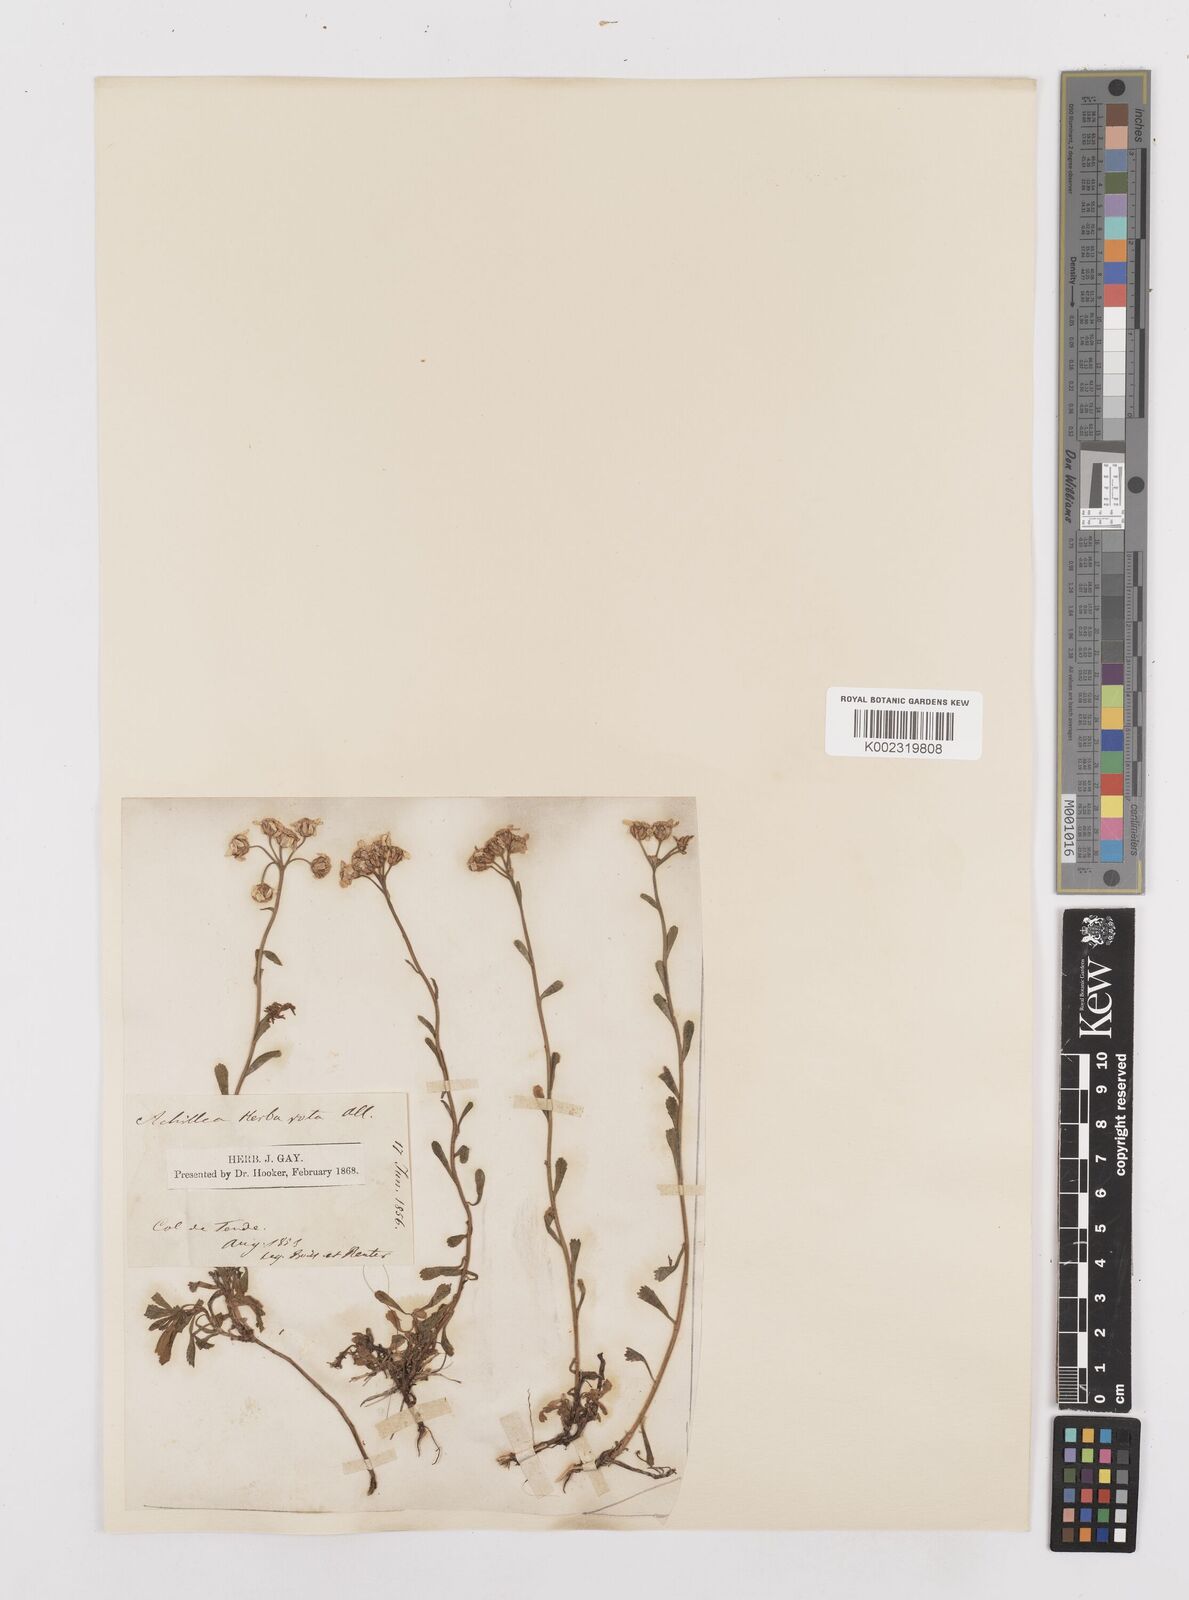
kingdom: Plantae
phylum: Tracheophyta
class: Magnoliopsida
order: Asterales
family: Asteraceae
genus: Achillea
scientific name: Achillea erba-rotta
